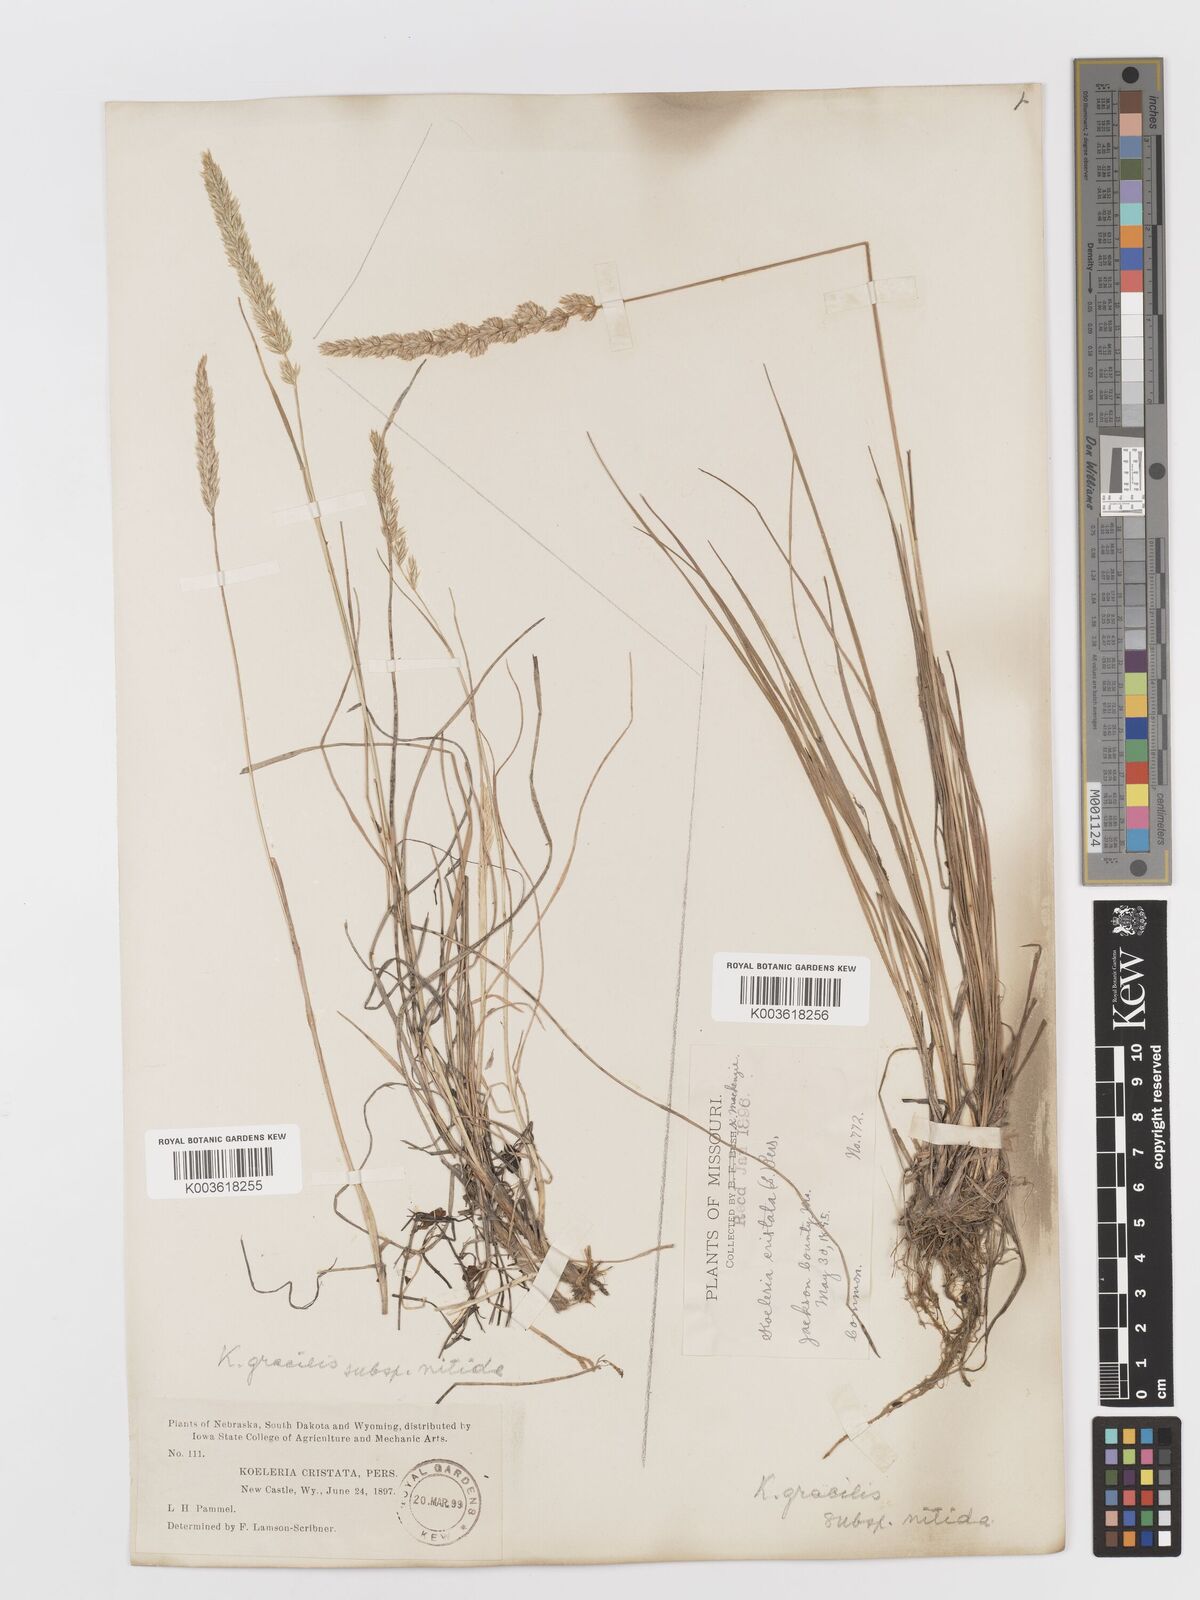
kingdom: Plantae
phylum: Tracheophyta
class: Liliopsida
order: Poales
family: Poaceae
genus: Koeleria
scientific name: Koeleria macrantha
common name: Crested hair-grass
